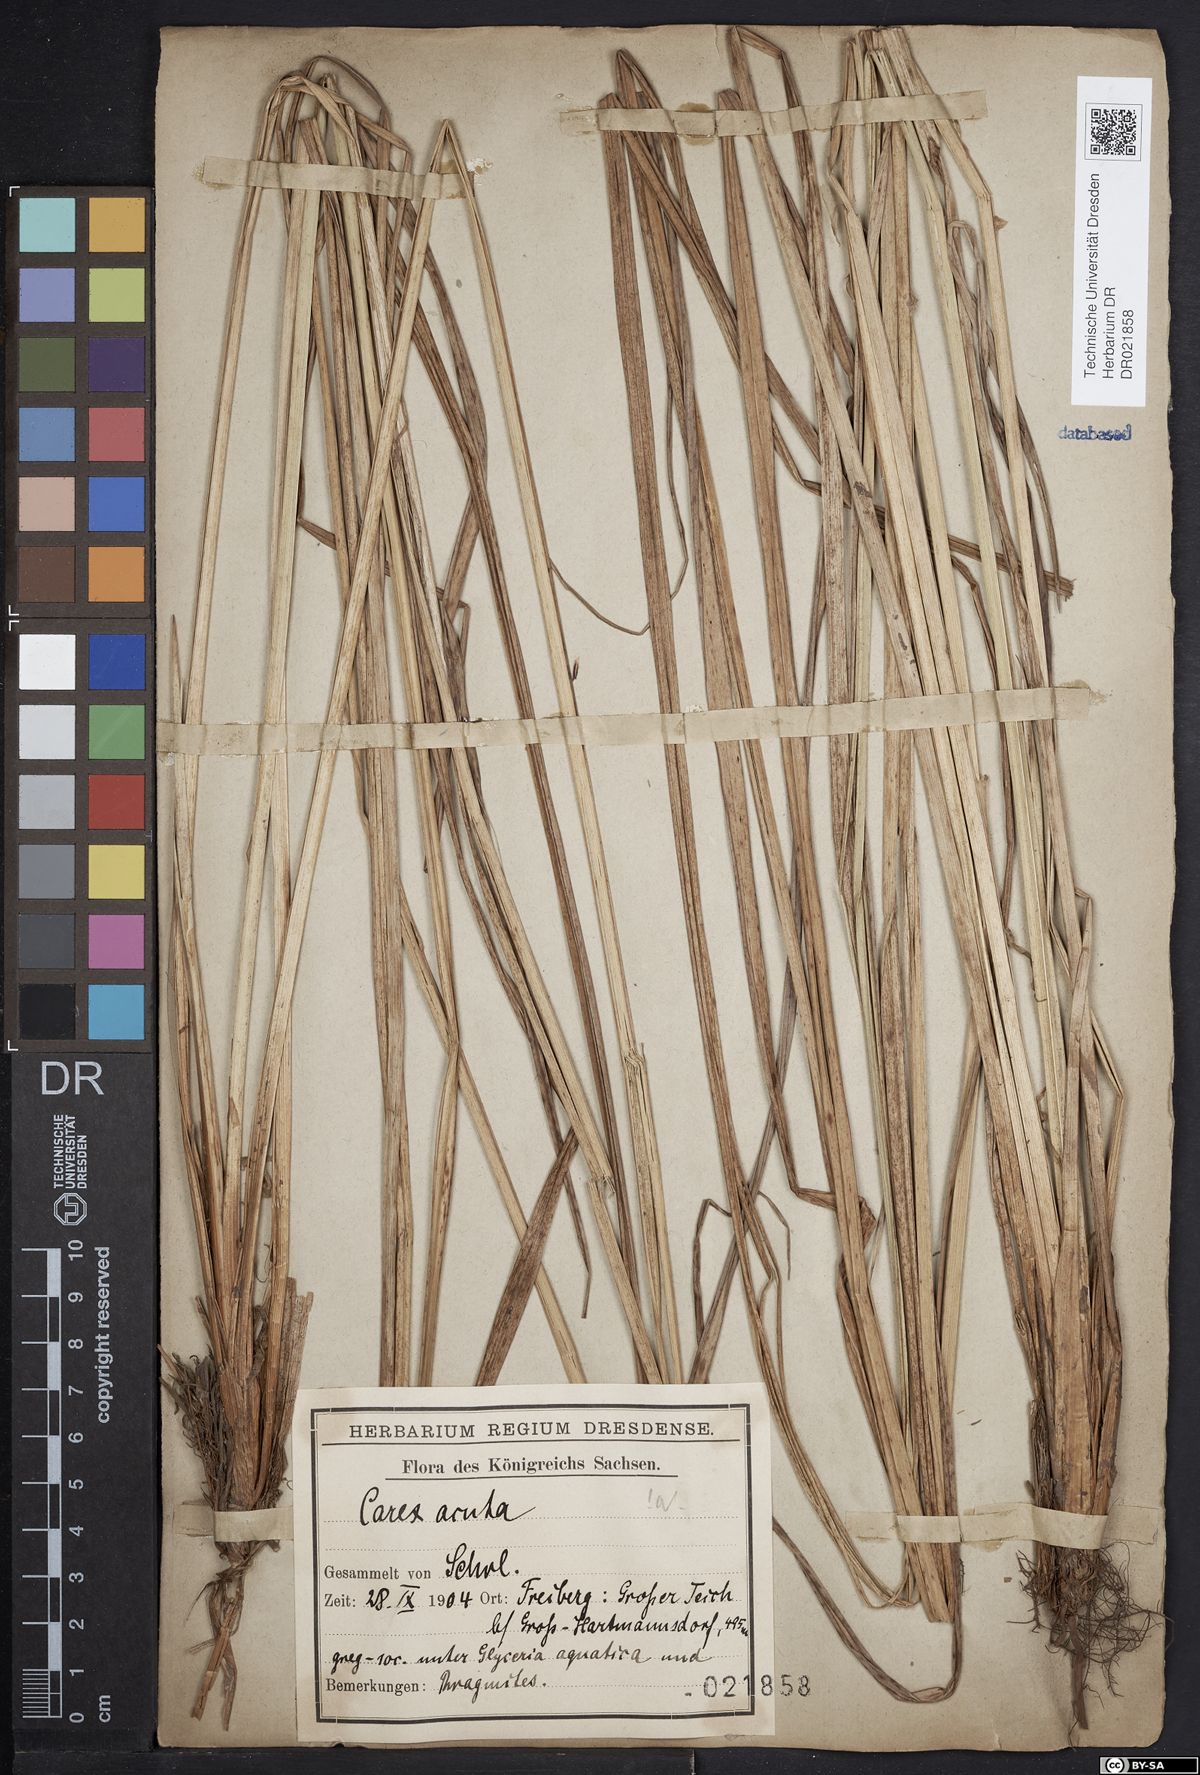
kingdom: Plantae
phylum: Tracheophyta
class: Liliopsida
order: Poales
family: Cyperaceae
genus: Carex
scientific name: Carex acuta
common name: Slender tufted-sedge
